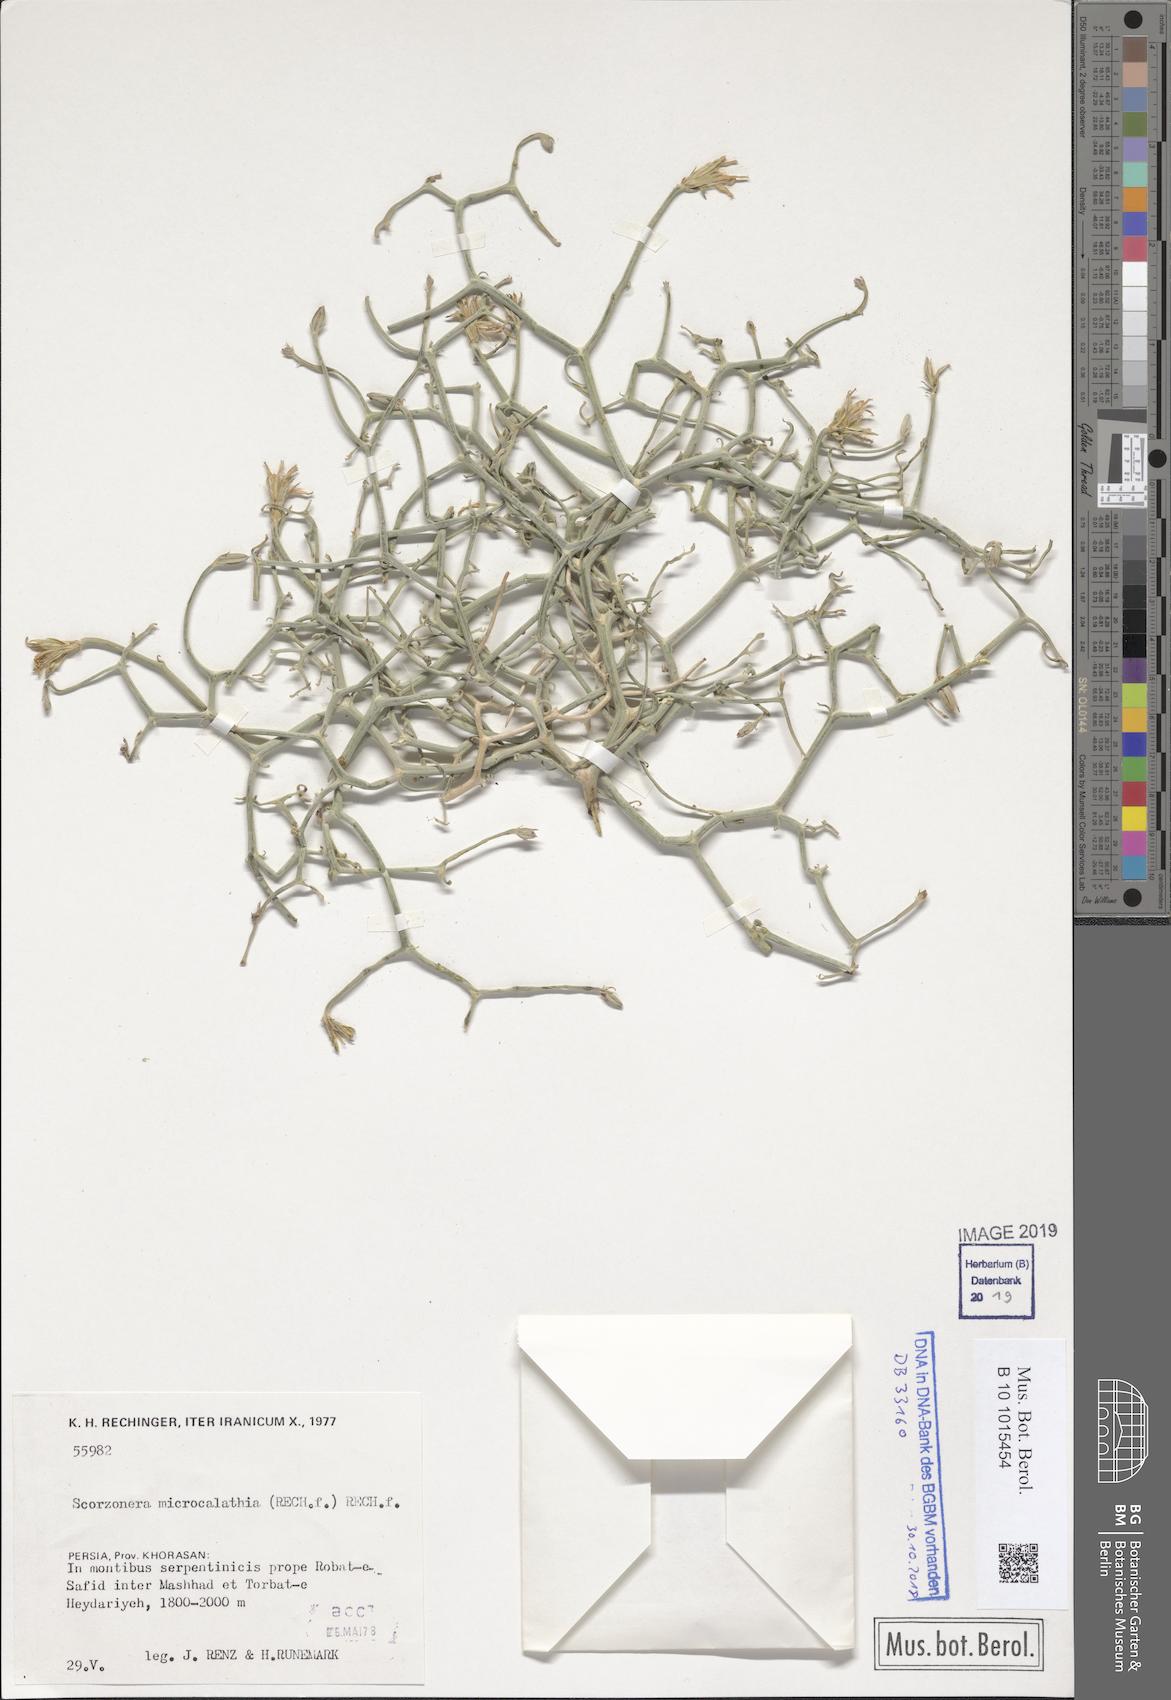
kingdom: Plantae
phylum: Tracheophyta
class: Magnoliopsida
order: Asterales
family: Asteraceae
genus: Ramaliella
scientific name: Ramaliella microcalathia
